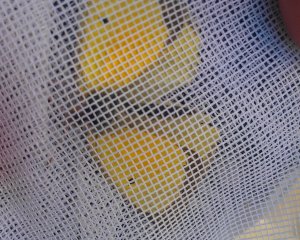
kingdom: Animalia
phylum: Arthropoda
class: Insecta
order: Lepidoptera
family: Pieridae
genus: Colias
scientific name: Colias eurytheme
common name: Orange Sulphur
